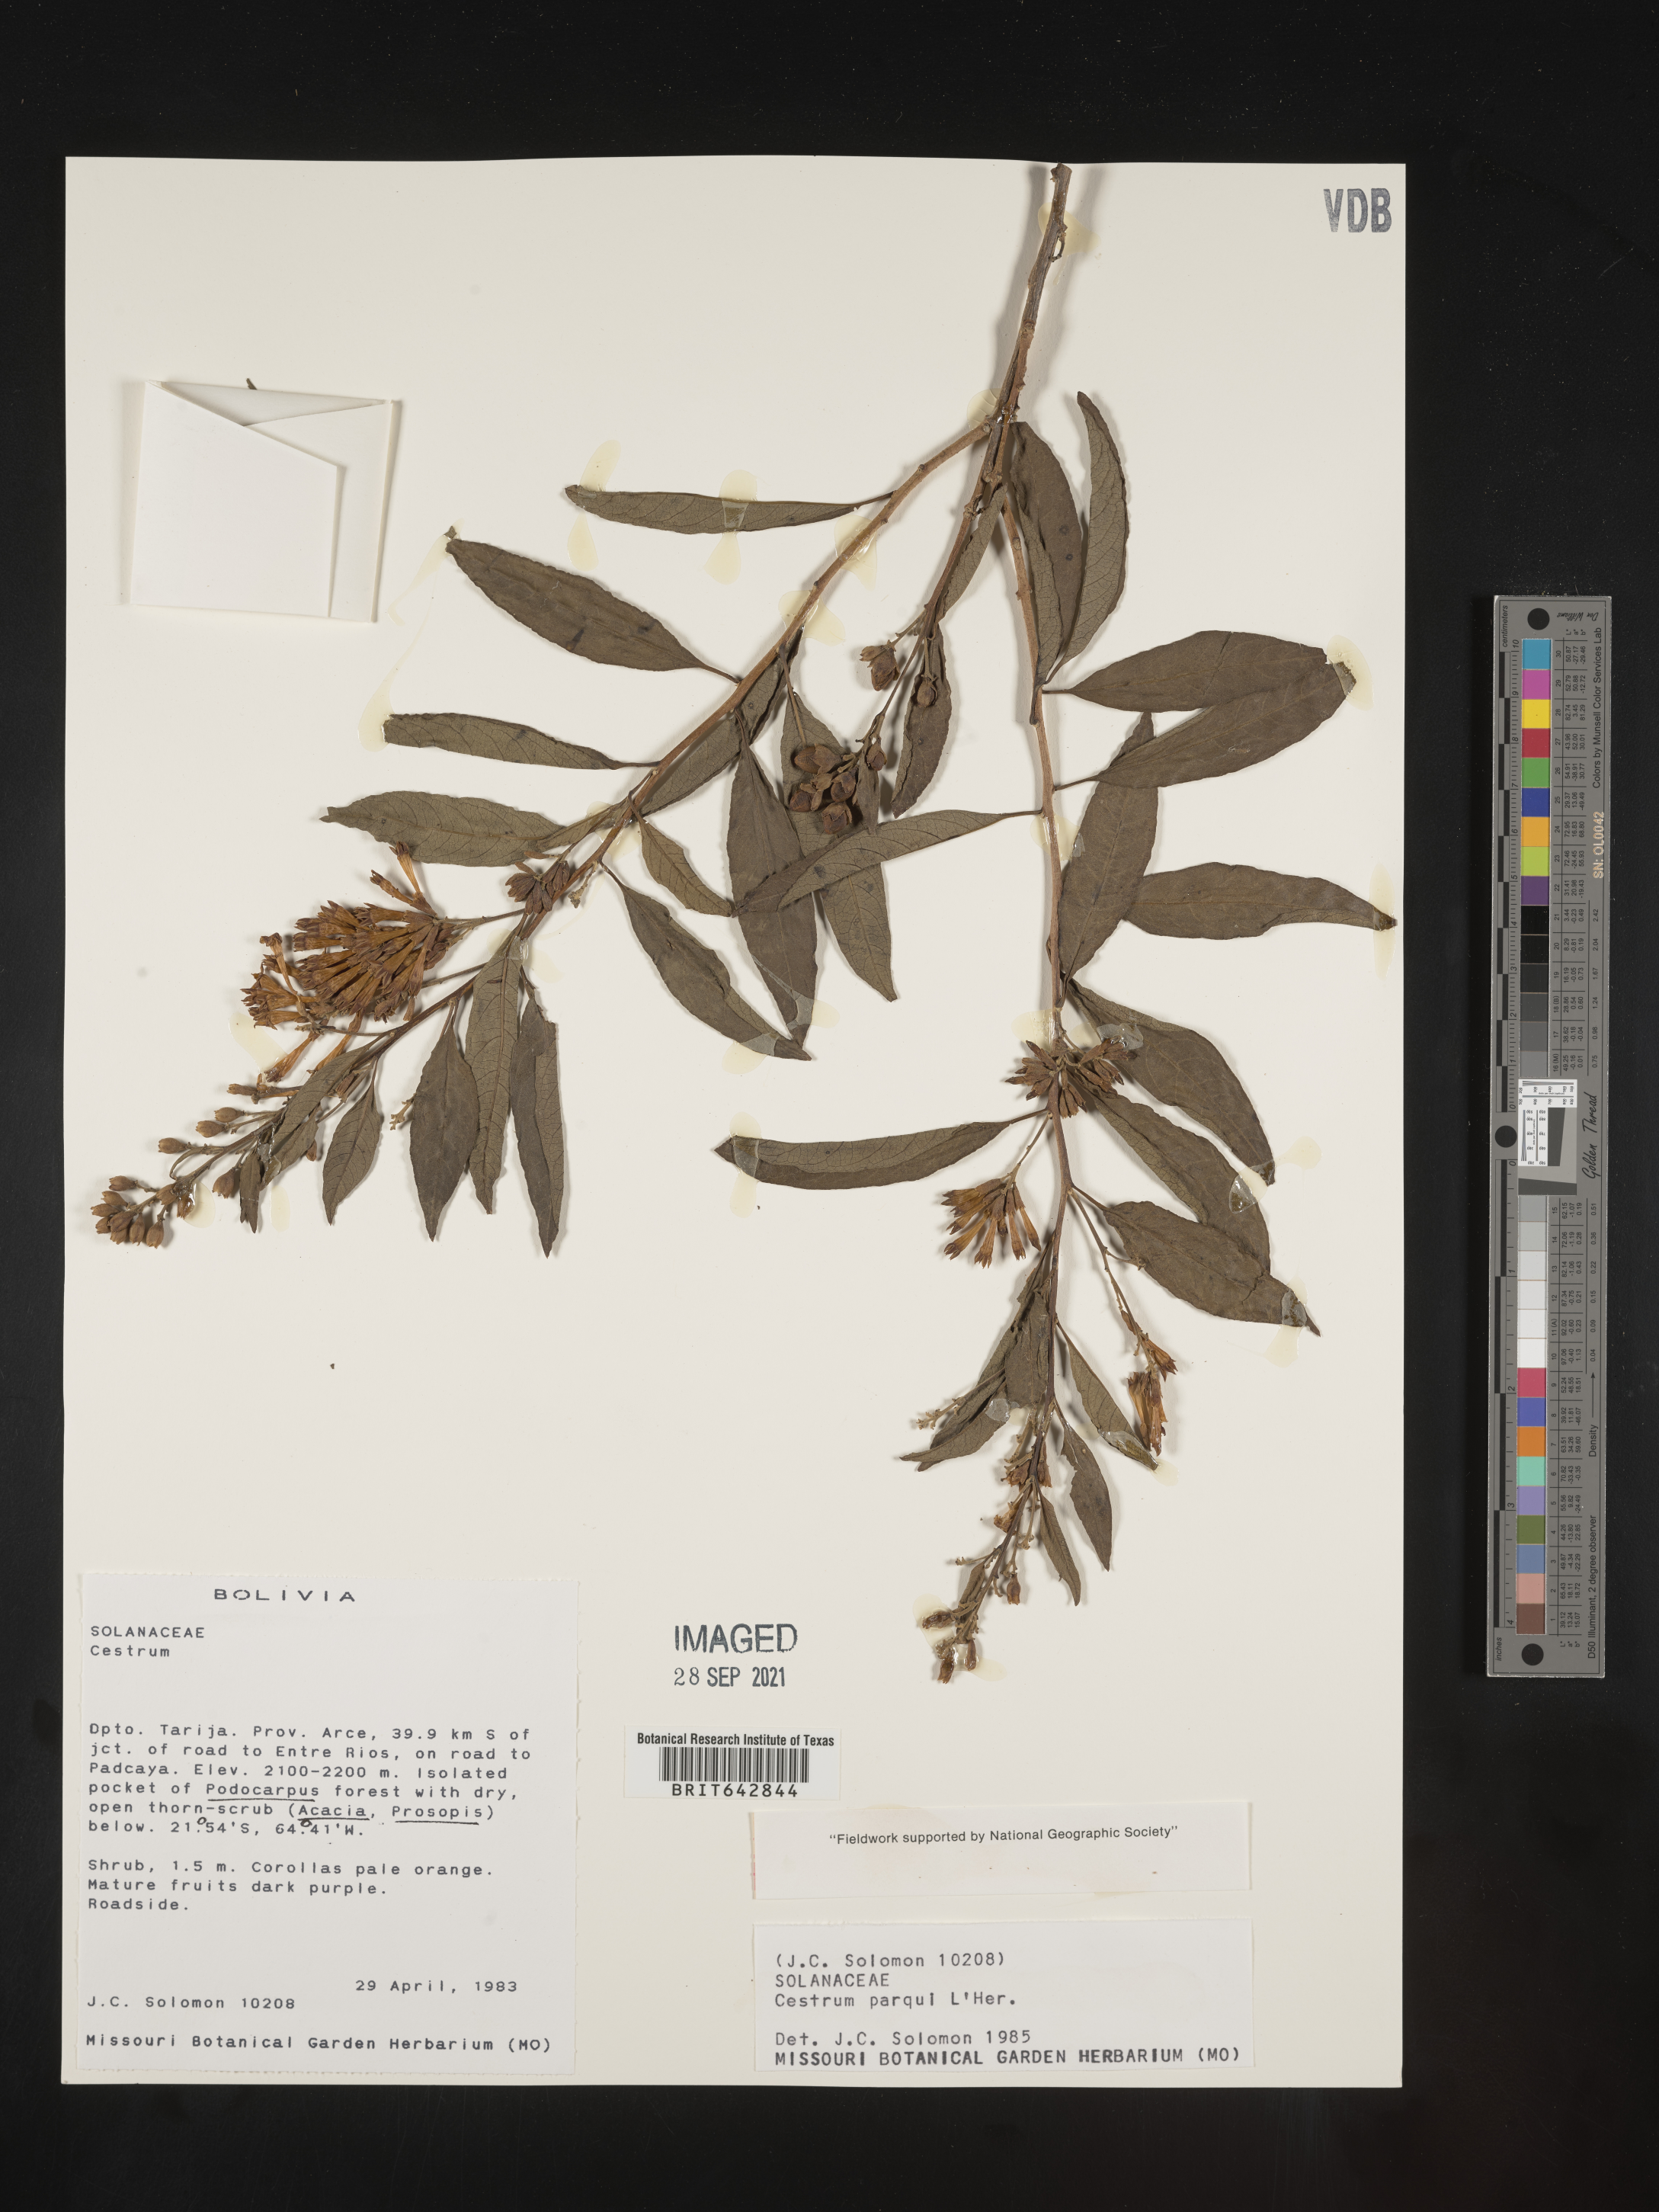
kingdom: Plantae
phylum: Tracheophyta
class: Magnoliopsida
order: Solanales
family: Solanaceae
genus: Cestrum
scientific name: Cestrum
